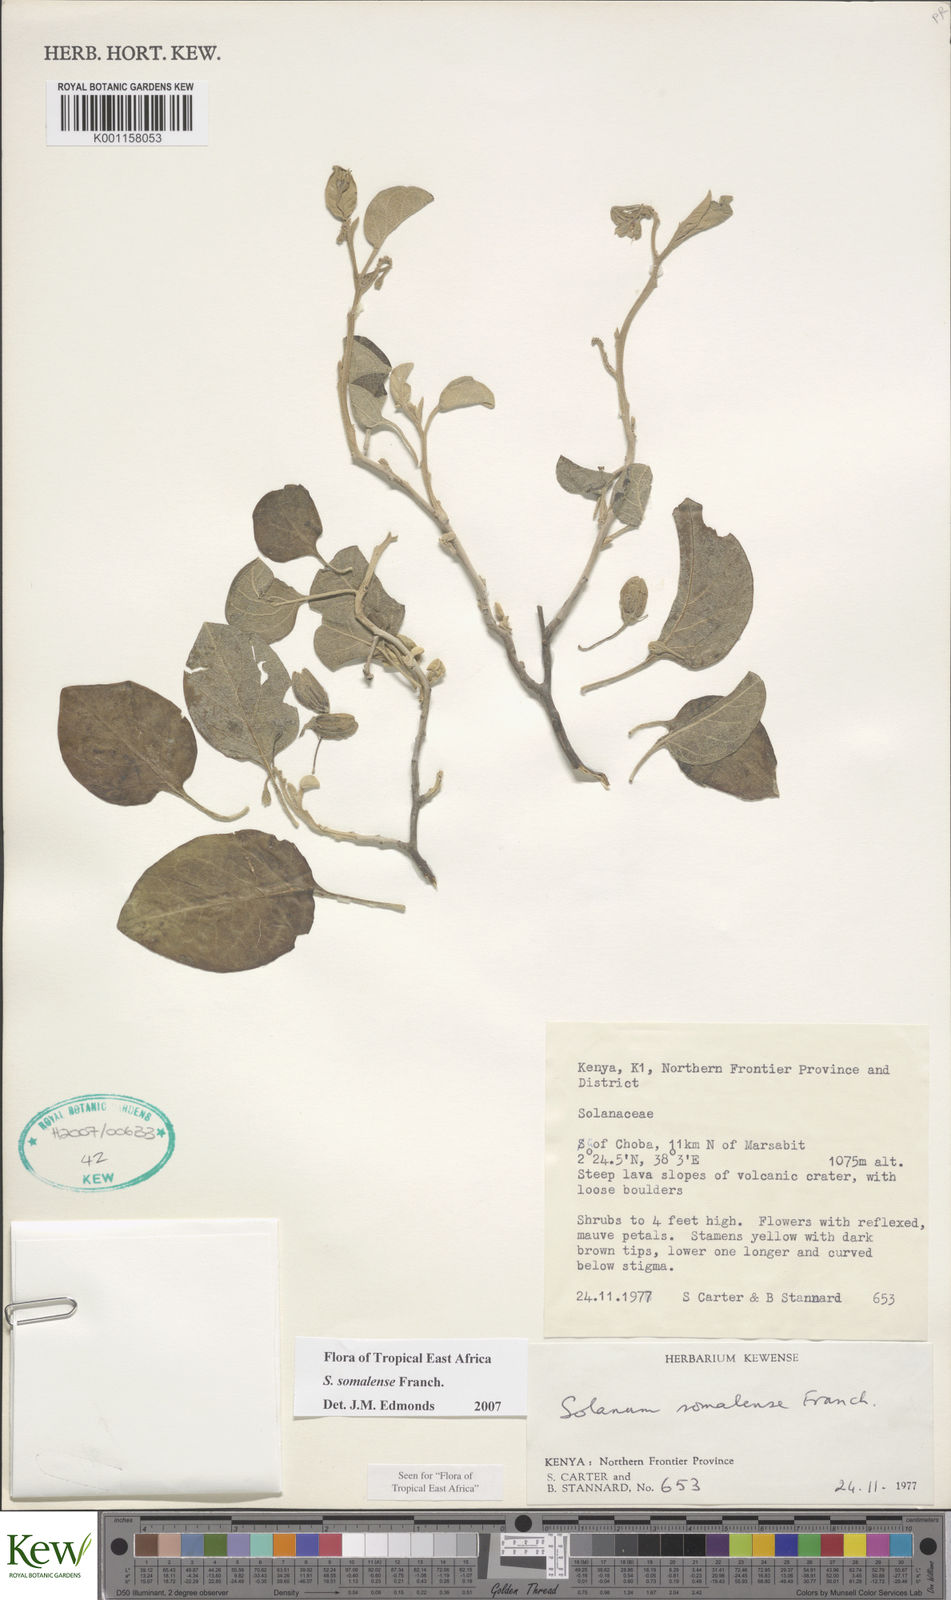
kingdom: Plantae
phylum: Tracheophyta
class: Magnoliopsida
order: Solanales
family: Solanaceae
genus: Solanum
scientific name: Solanum somalense
